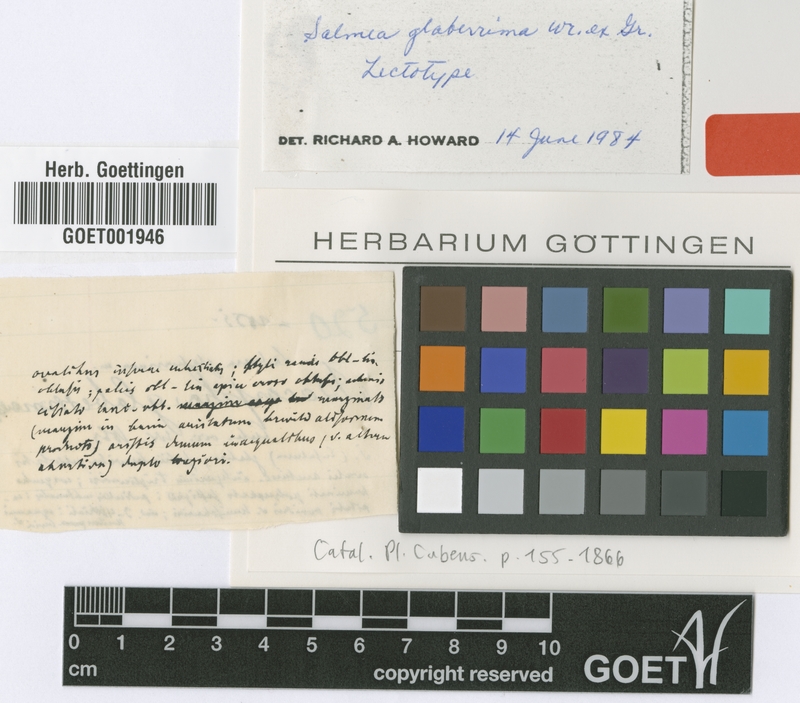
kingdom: Plantae
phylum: Tracheophyta
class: Magnoliopsida
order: Asterales
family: Asteraceae
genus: Salmea
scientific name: Salmea glaberrima
